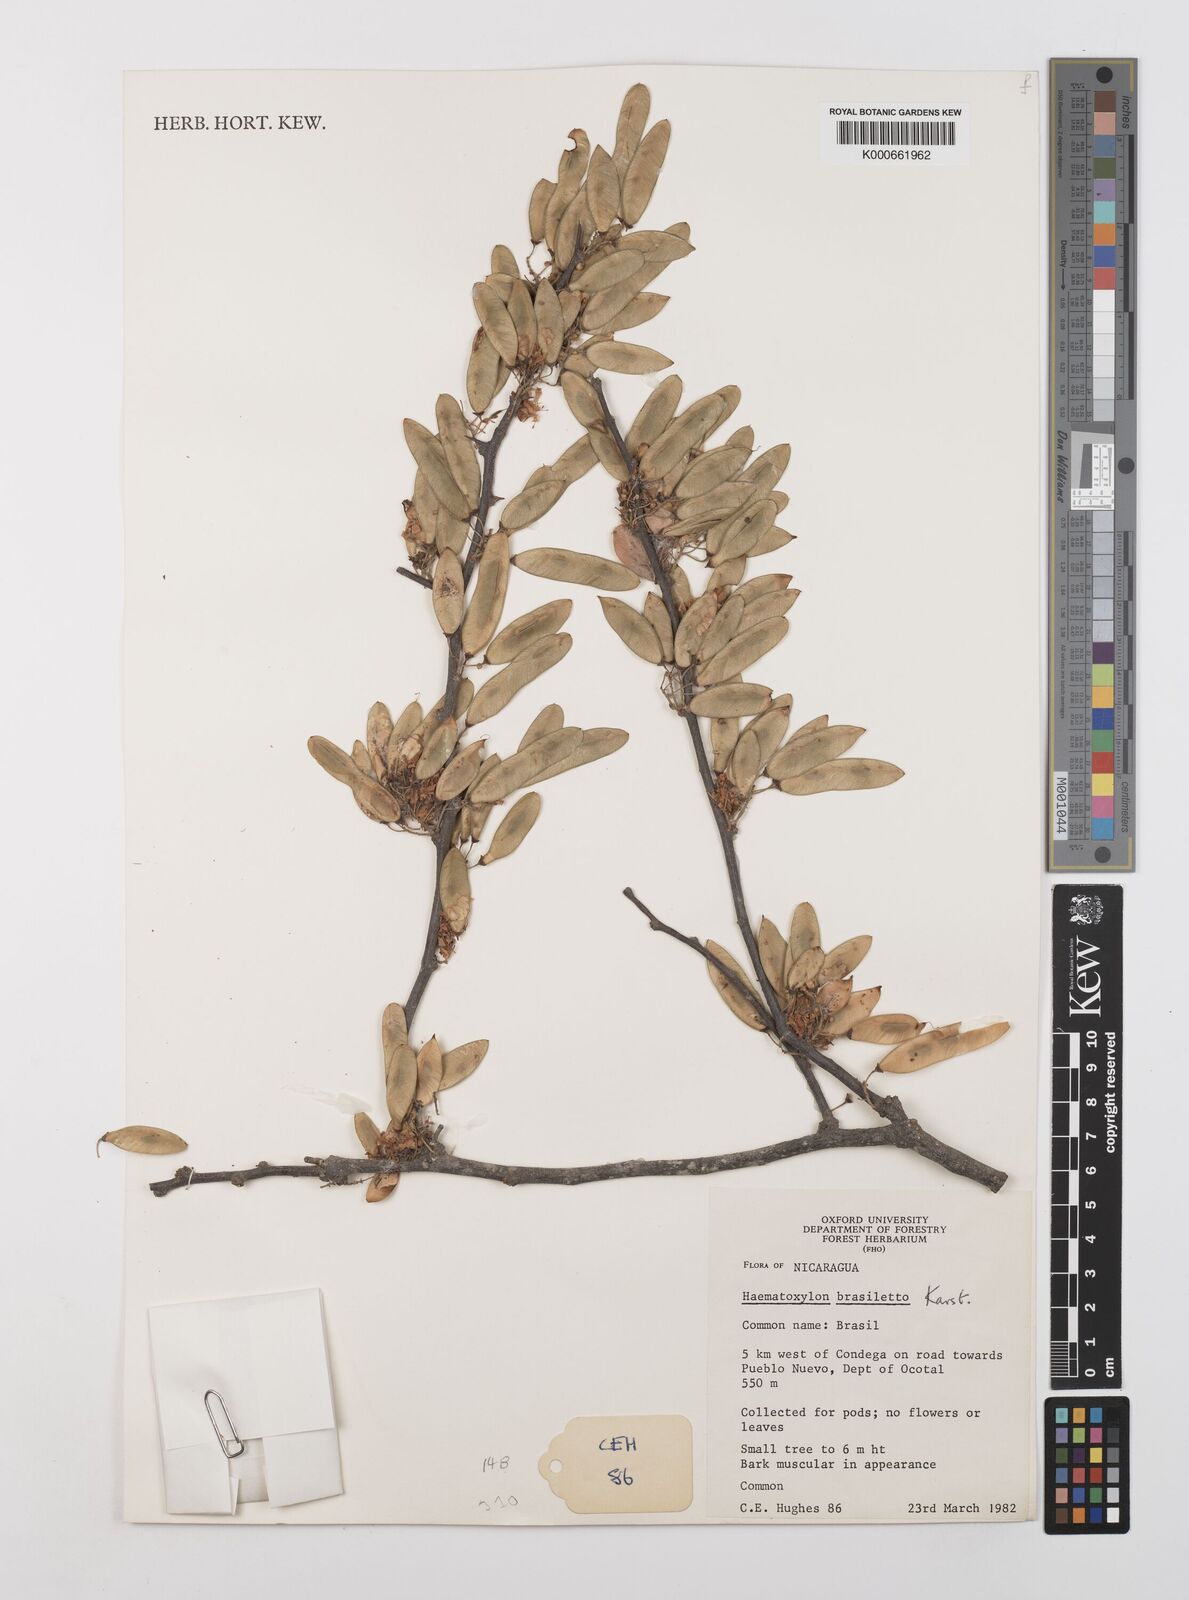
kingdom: Plantae
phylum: Tracheophyta
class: Magnoliopsida
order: Fabales
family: Fabaceae
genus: Haematoxylum
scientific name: Haematoxylum brasiletto
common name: Peachwood
